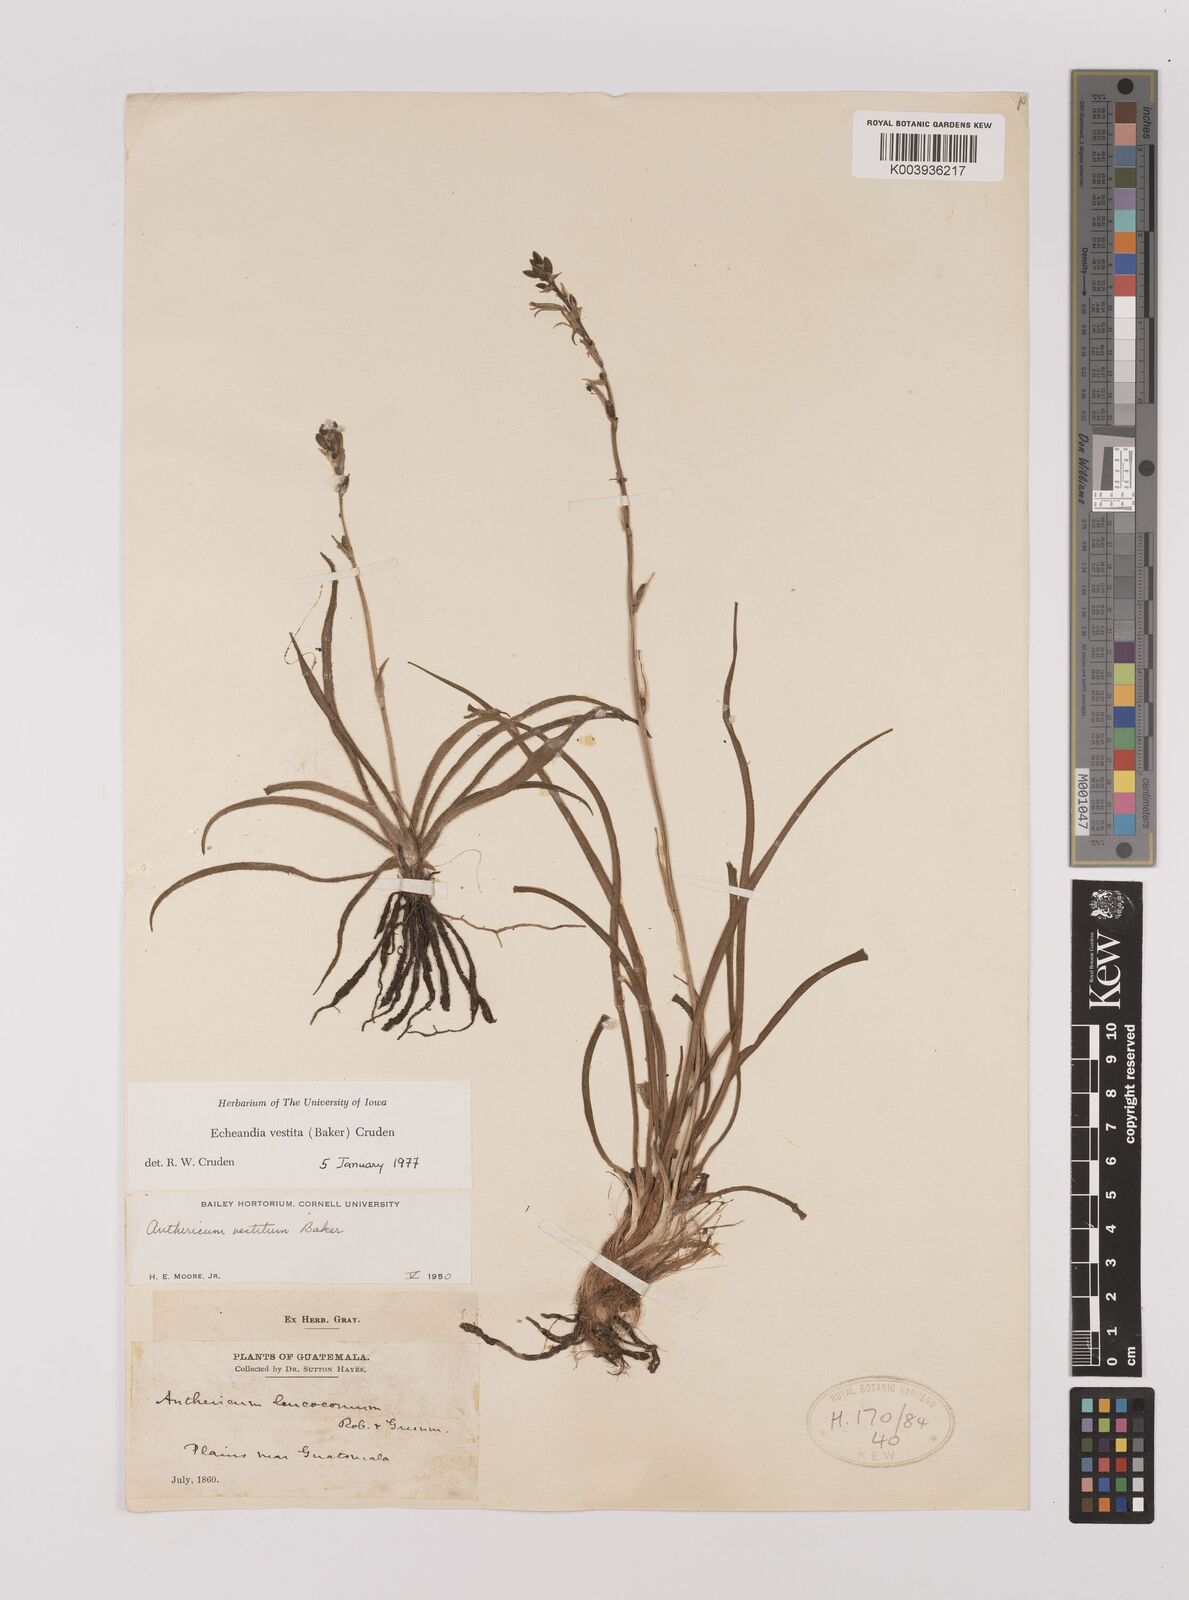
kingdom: Plantae
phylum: Tracheophyta
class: Liliopsida
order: Asparagales
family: Asparagaceae
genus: Echeandia
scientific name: Echeandia vestita
